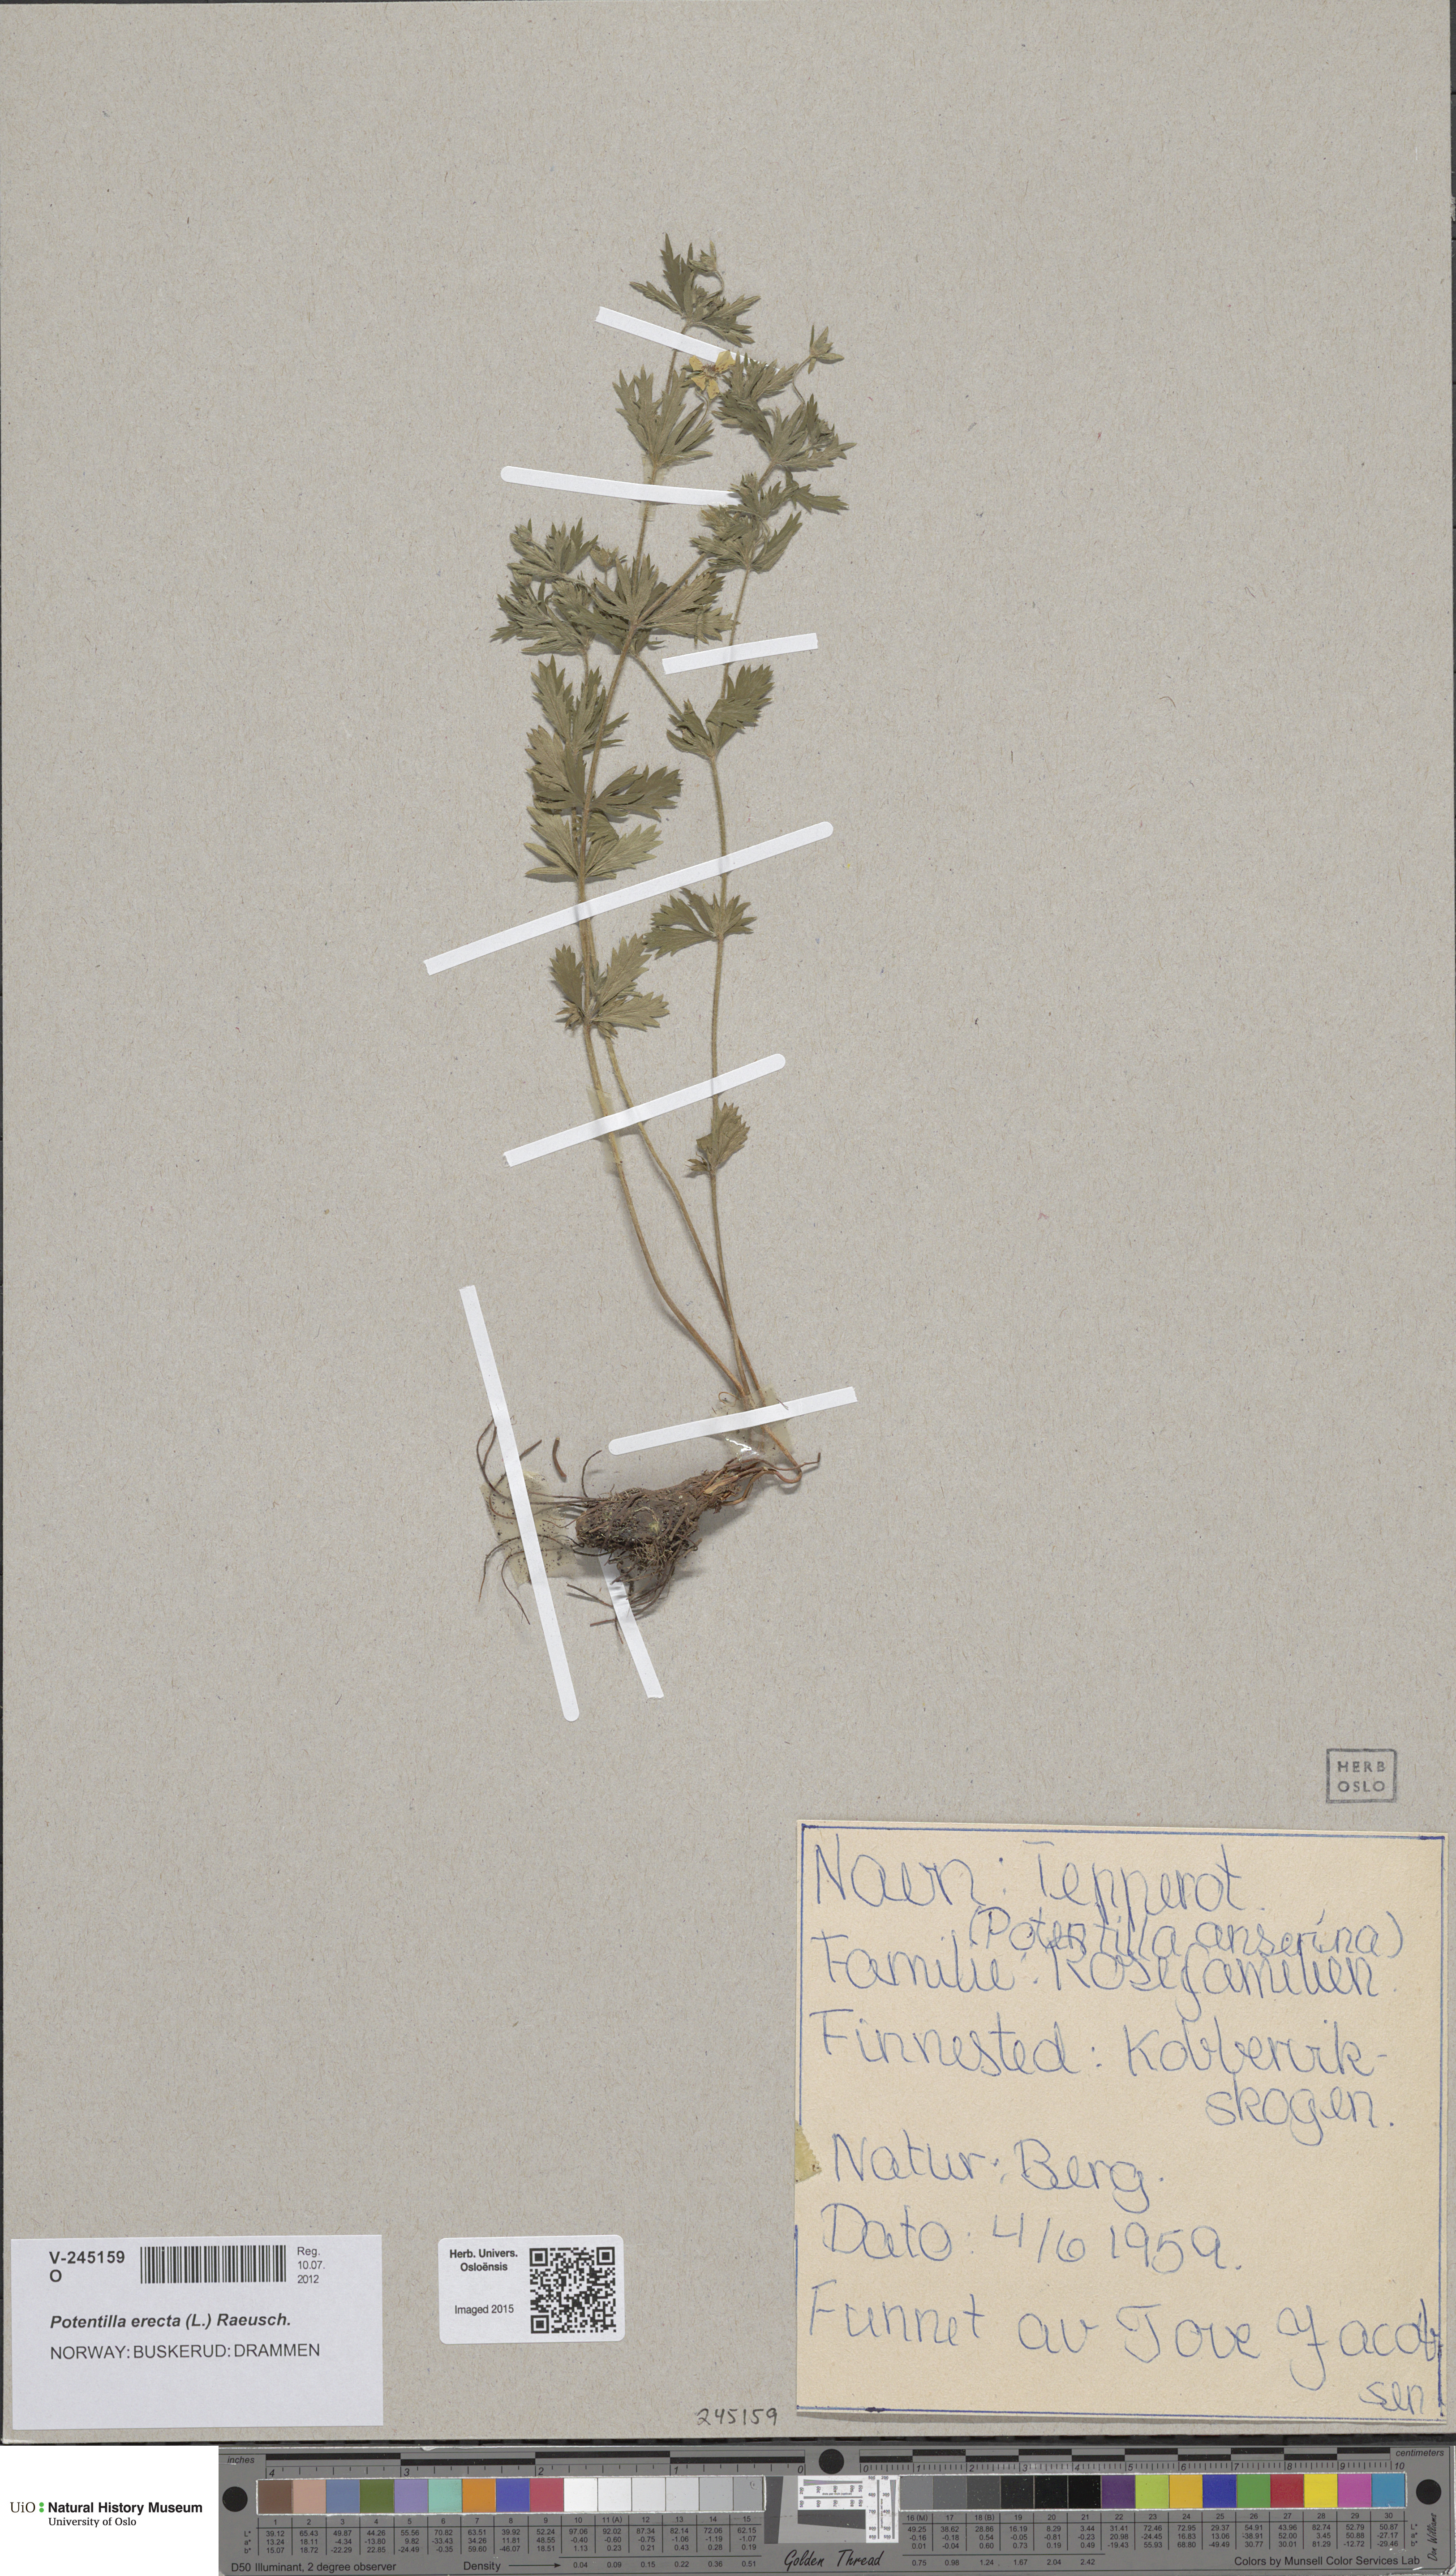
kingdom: Plantae
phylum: Tracheophyta
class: Magnoliopsida
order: Rosales
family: Rosaceae
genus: Potentilla
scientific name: Potentilla erecta
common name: Tormentil
